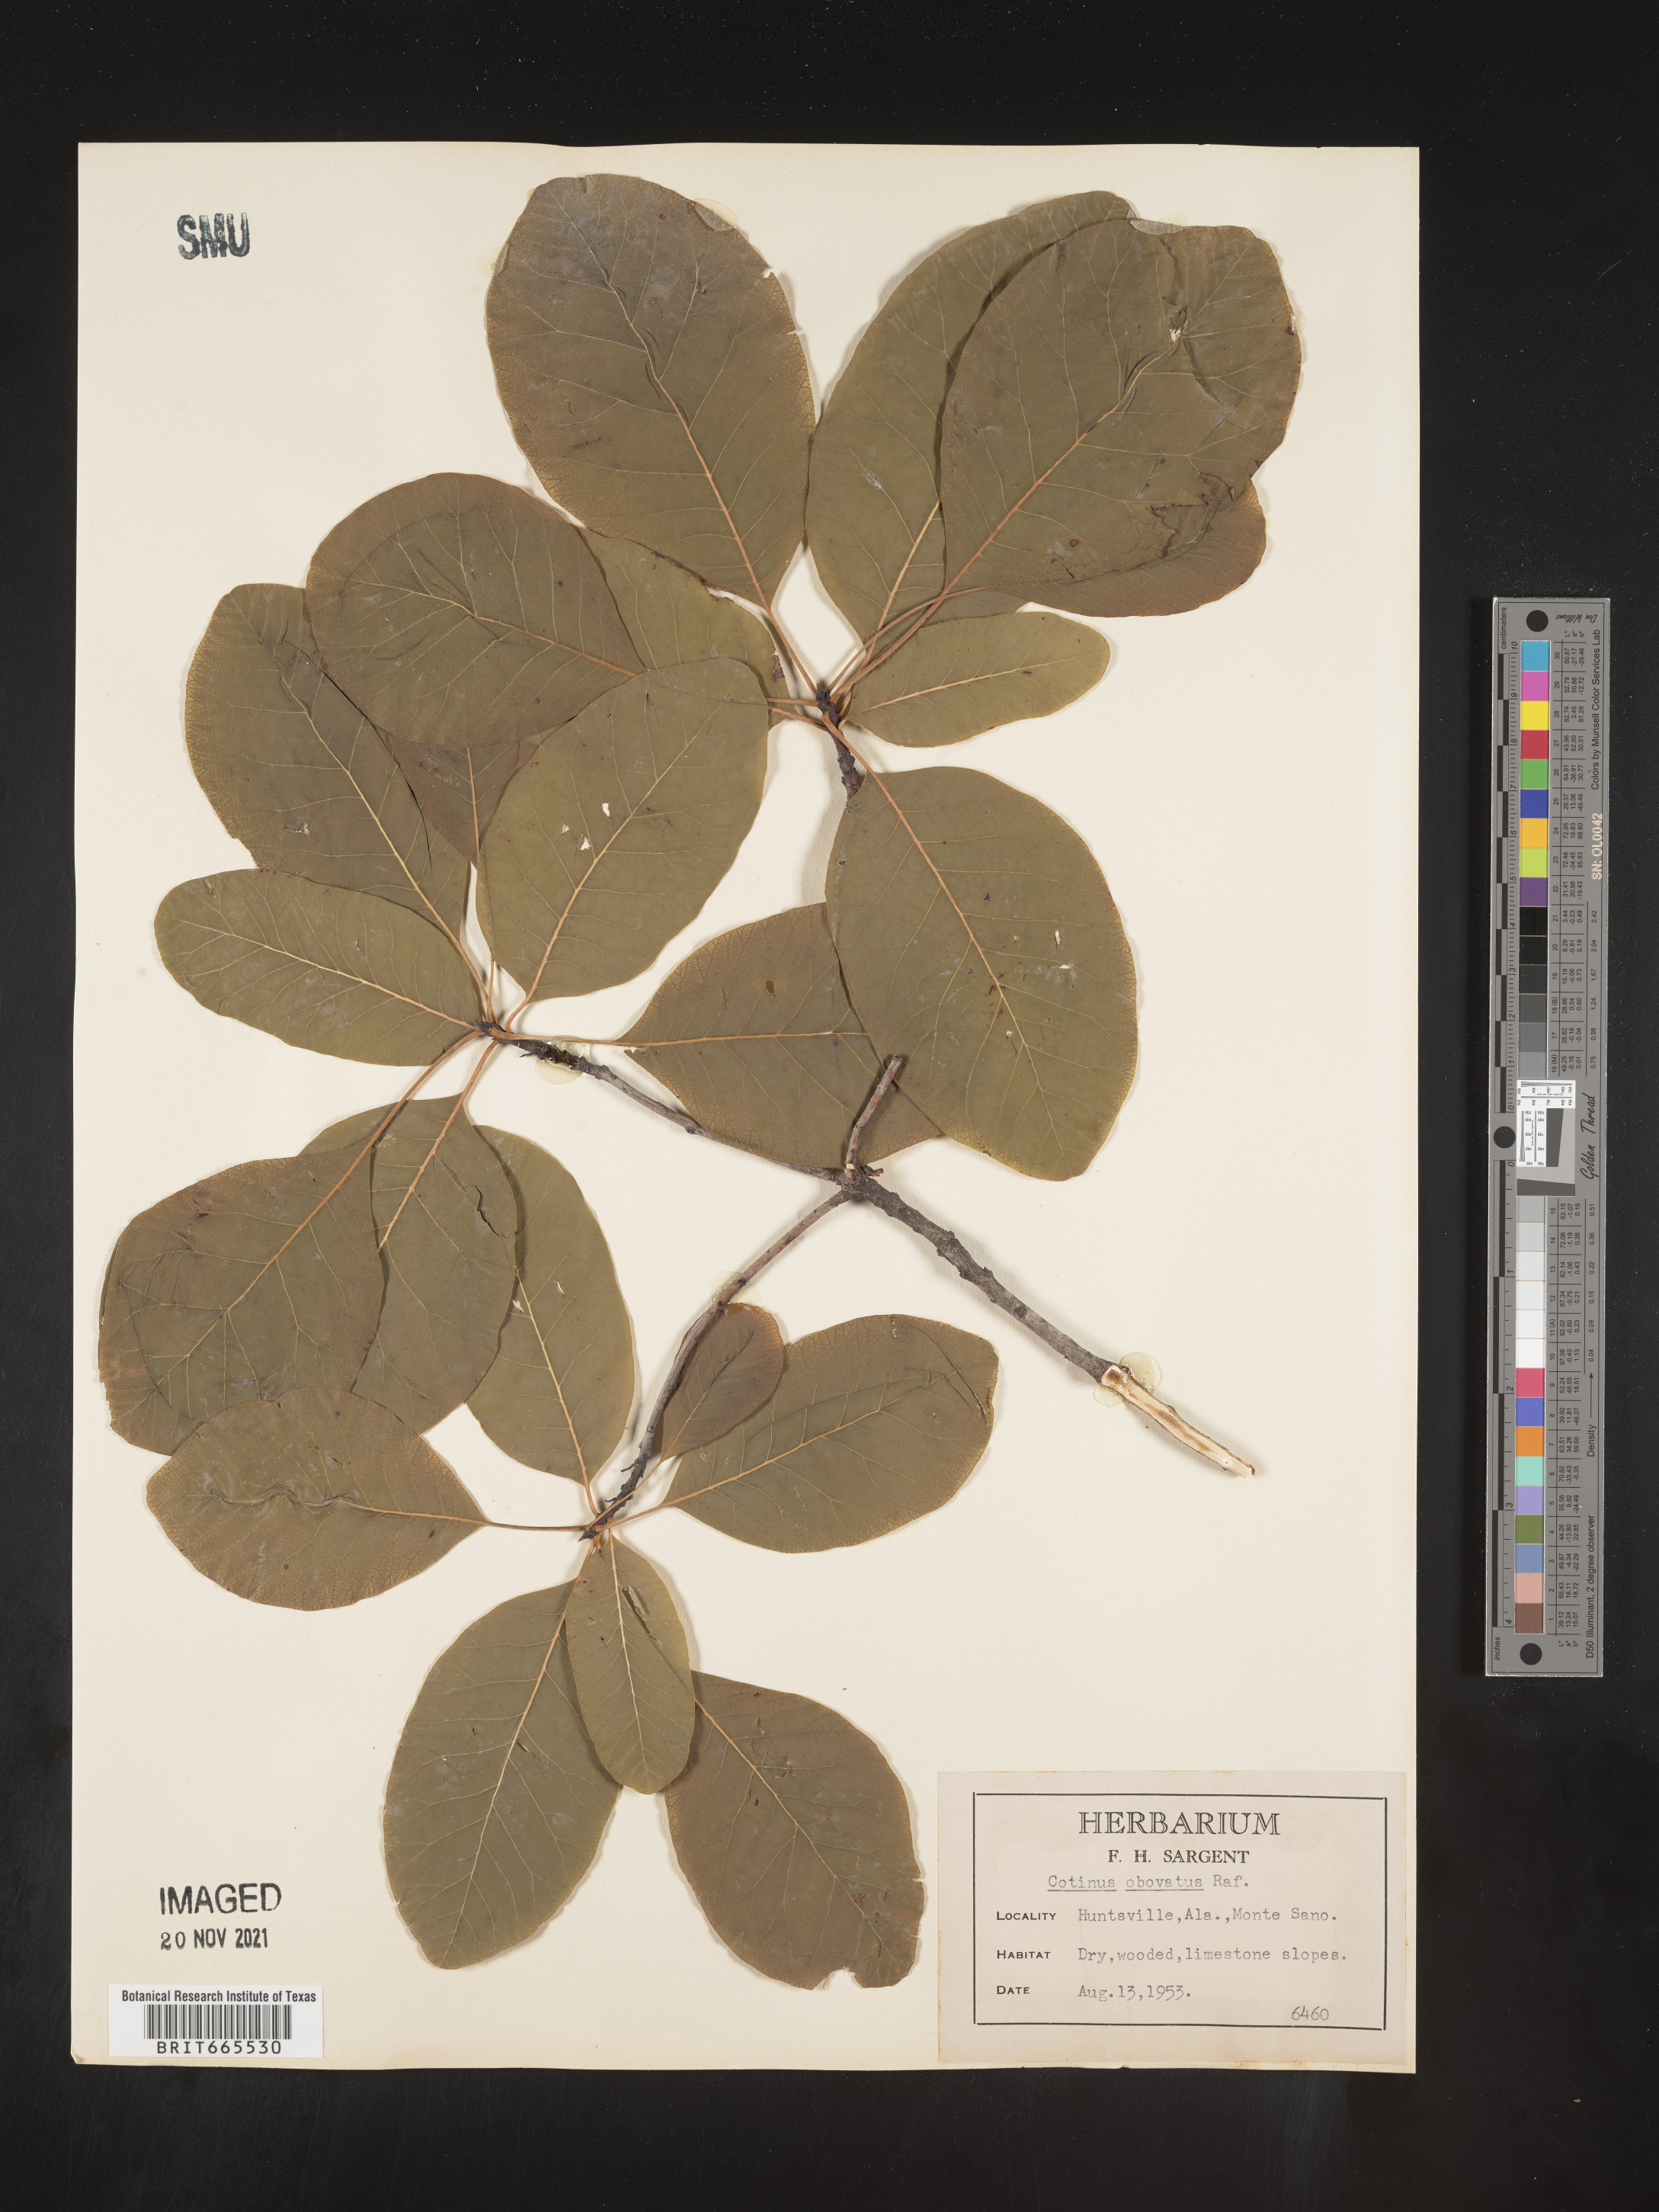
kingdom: Plantae
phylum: Tracheophyta
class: Magnoliopsida
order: Sapindales
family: Anacardiaceae
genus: Cotinus
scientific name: Cotinus obovatus
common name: Chittamwood
